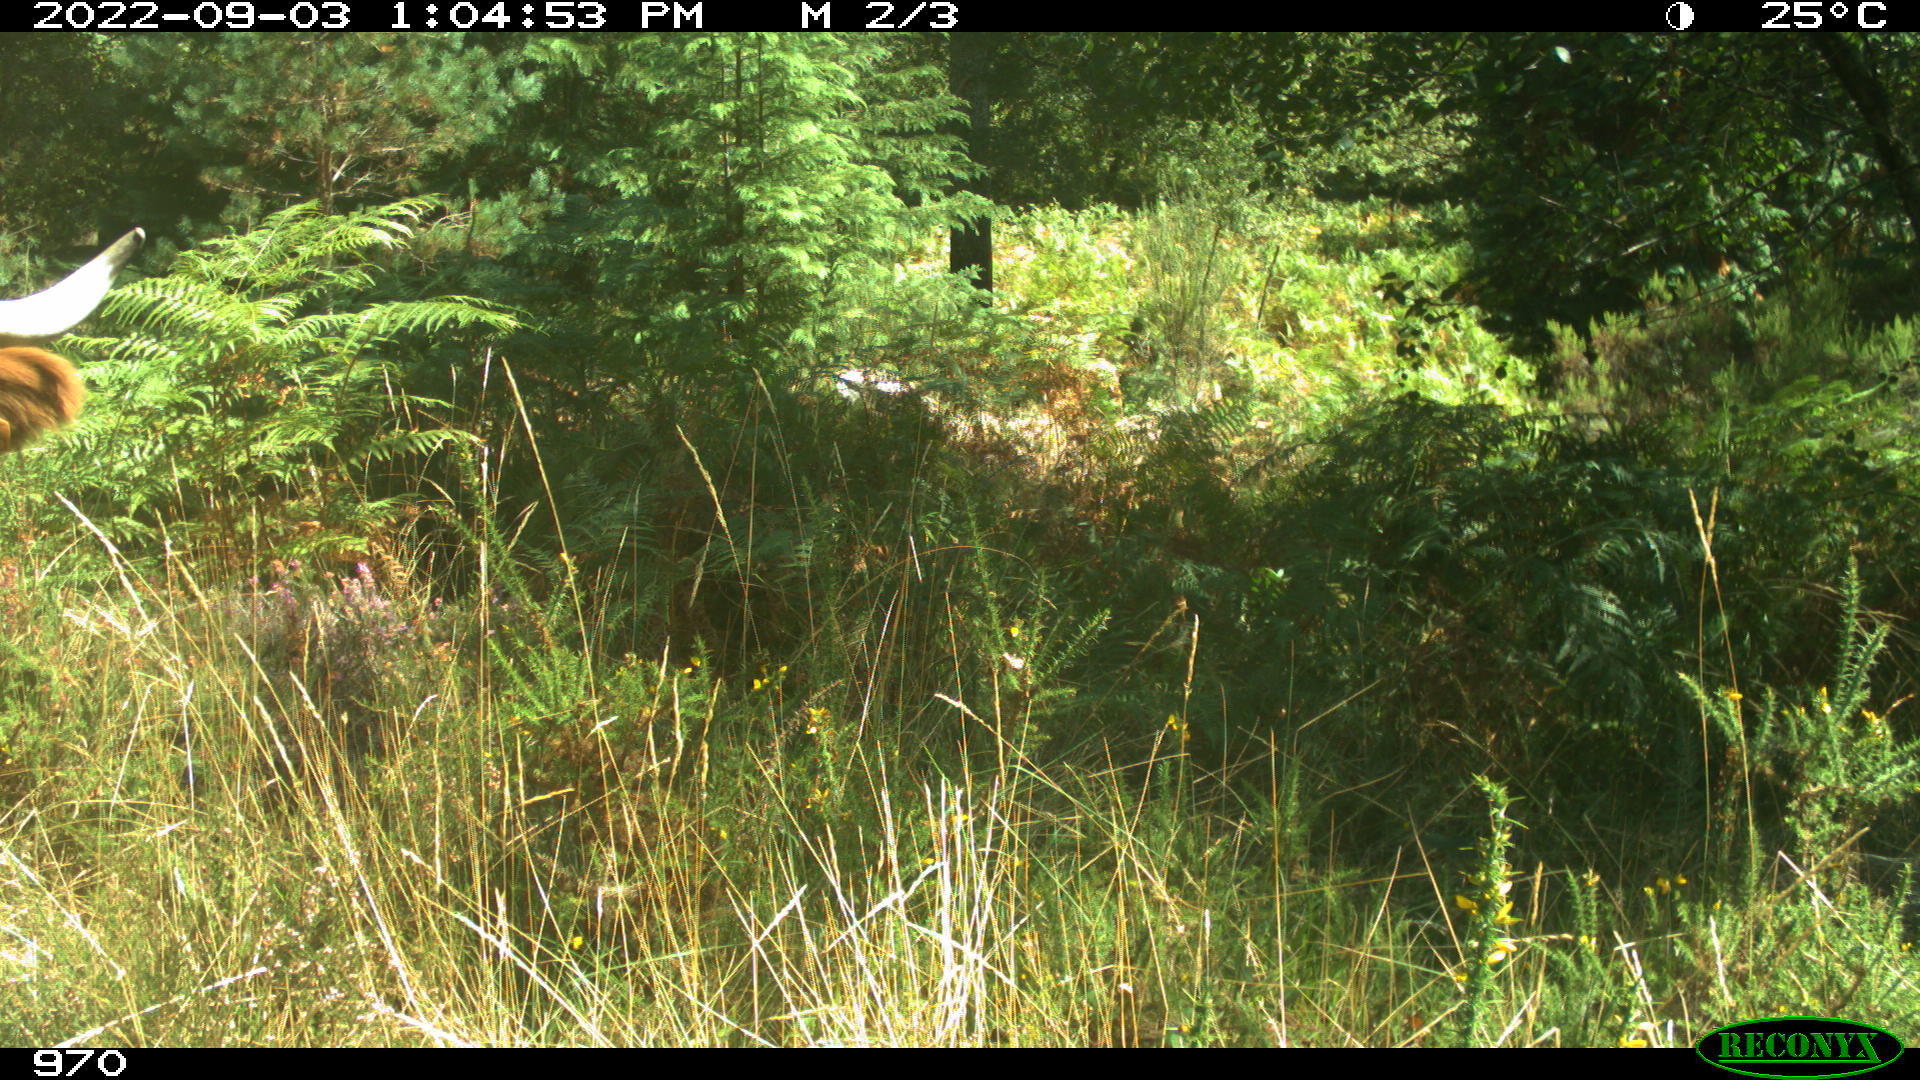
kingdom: Animalia
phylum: Chordata
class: Mammalia
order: Artiodactyla
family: Bovidae
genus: Bos
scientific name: Bos taurus
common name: Domesticated cattle
